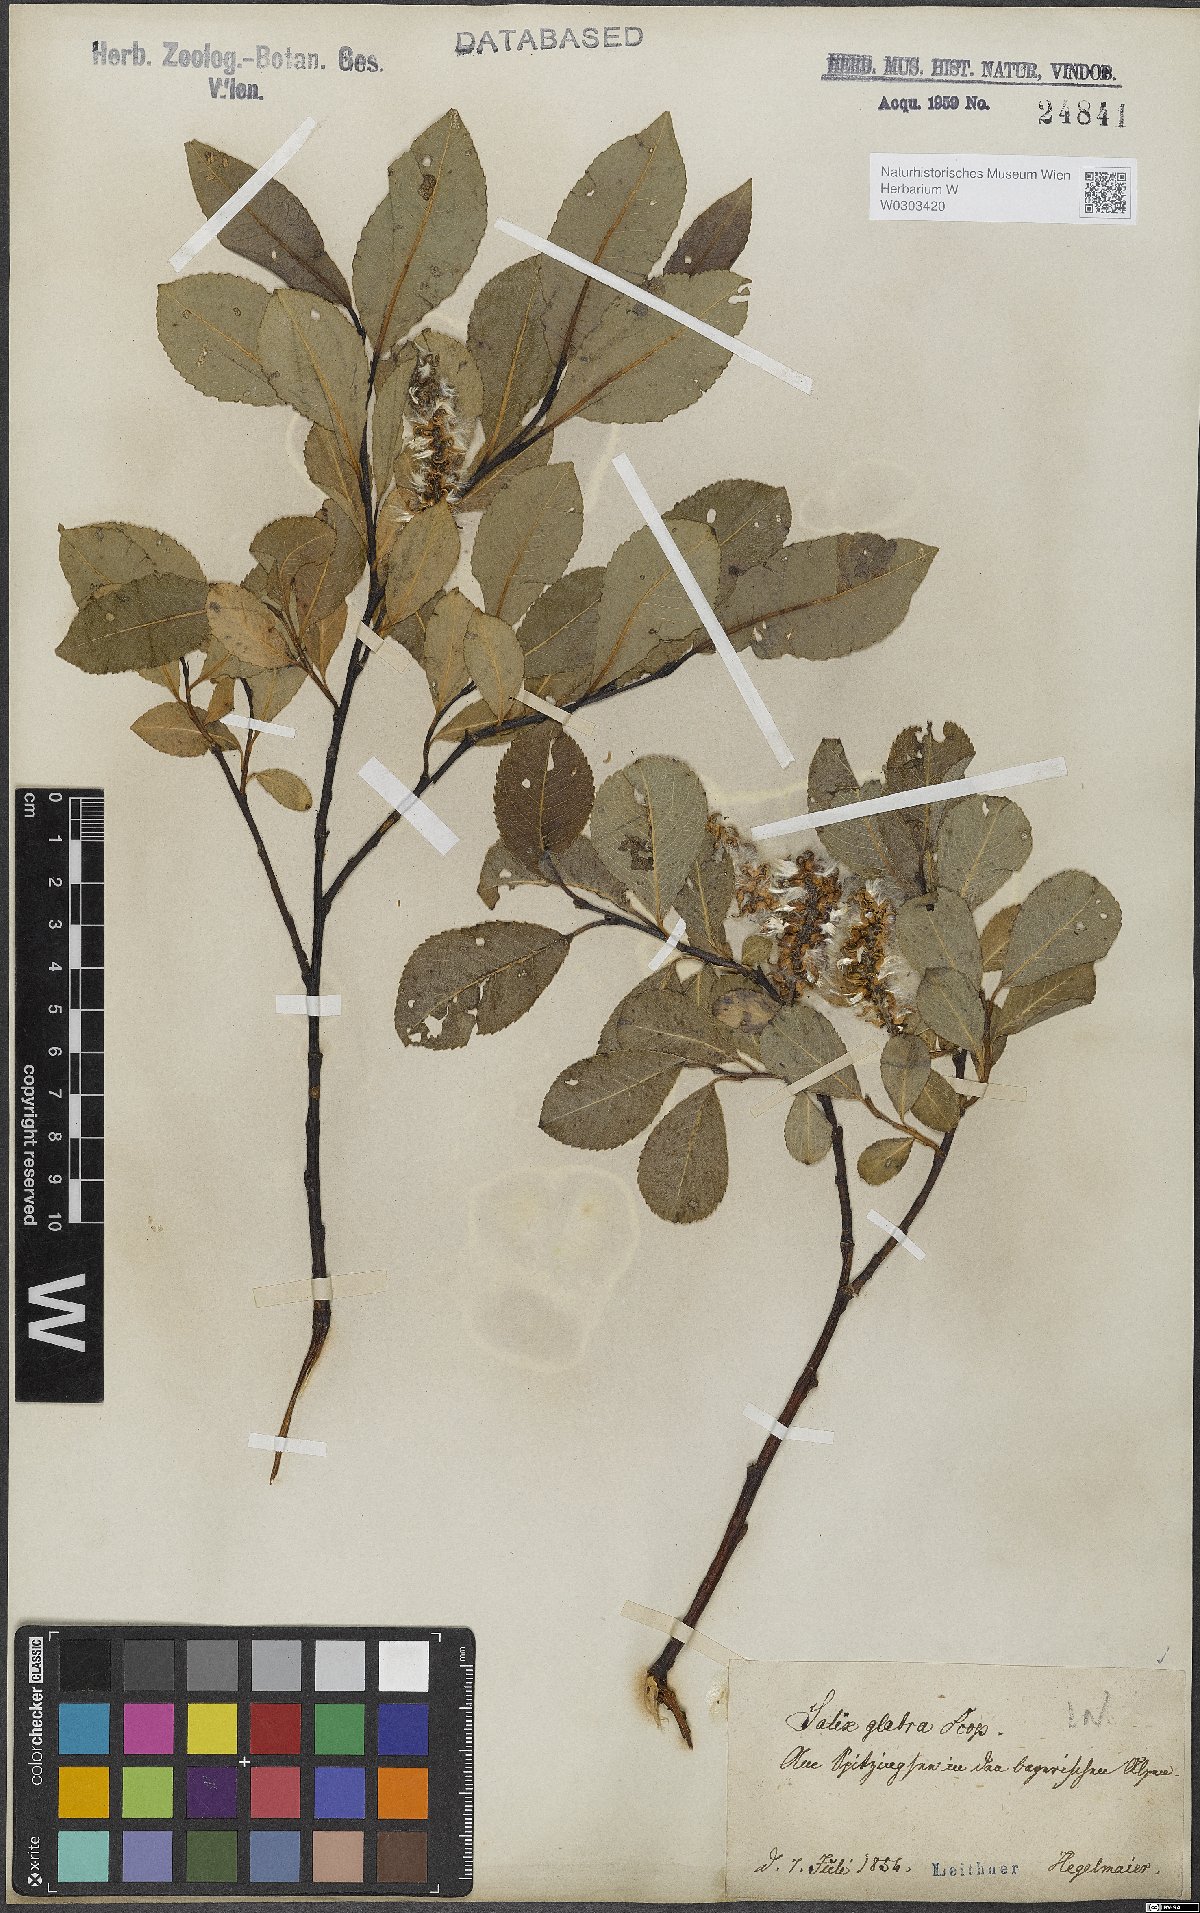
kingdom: Plantae
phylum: Tracheophyta
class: Magnoliopsida
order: Malpighiales
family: Salicaceae
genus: Salix
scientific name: Salix glabra
